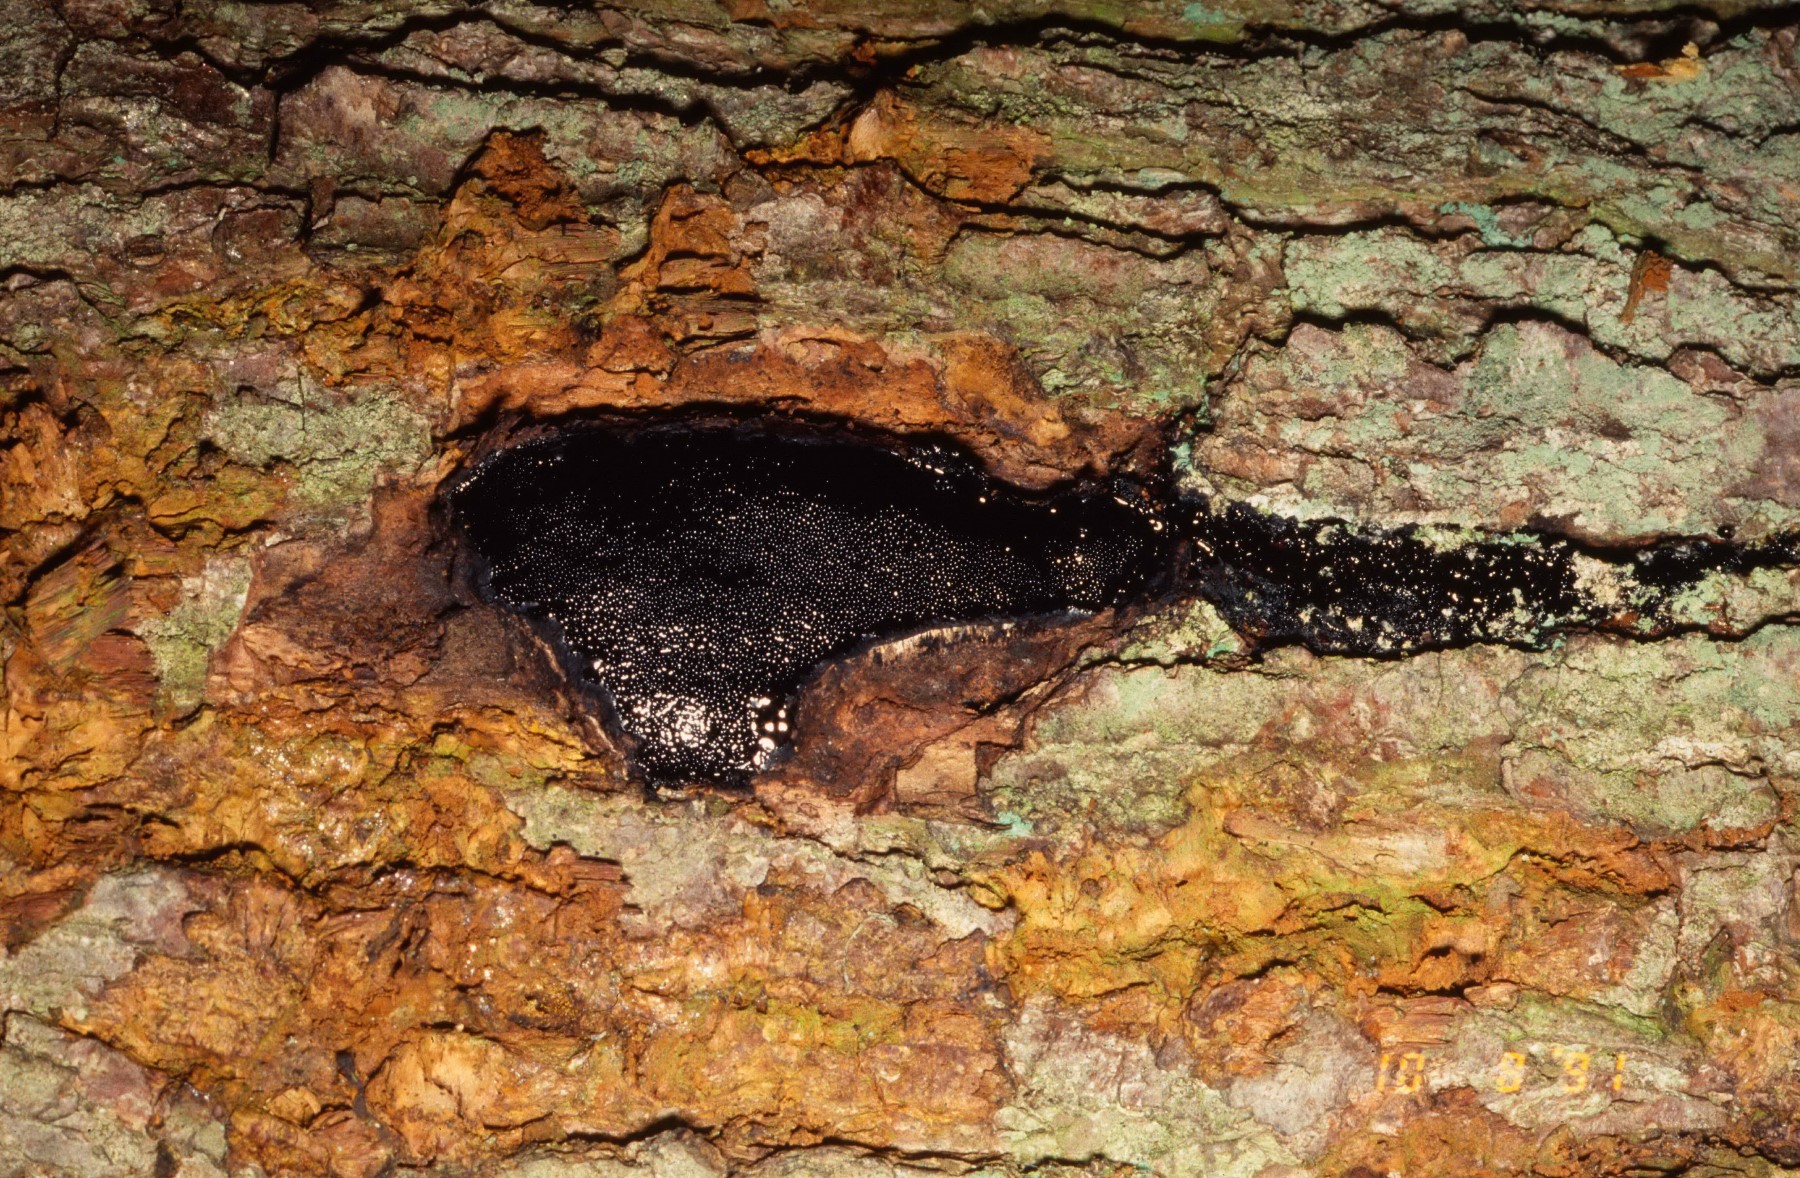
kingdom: Fungi
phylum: Ascomycota
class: Sordariomycetes
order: Boliniales
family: Boliniaceae
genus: Camarops
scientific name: Camarops polysperma
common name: elle-kulsnegl
